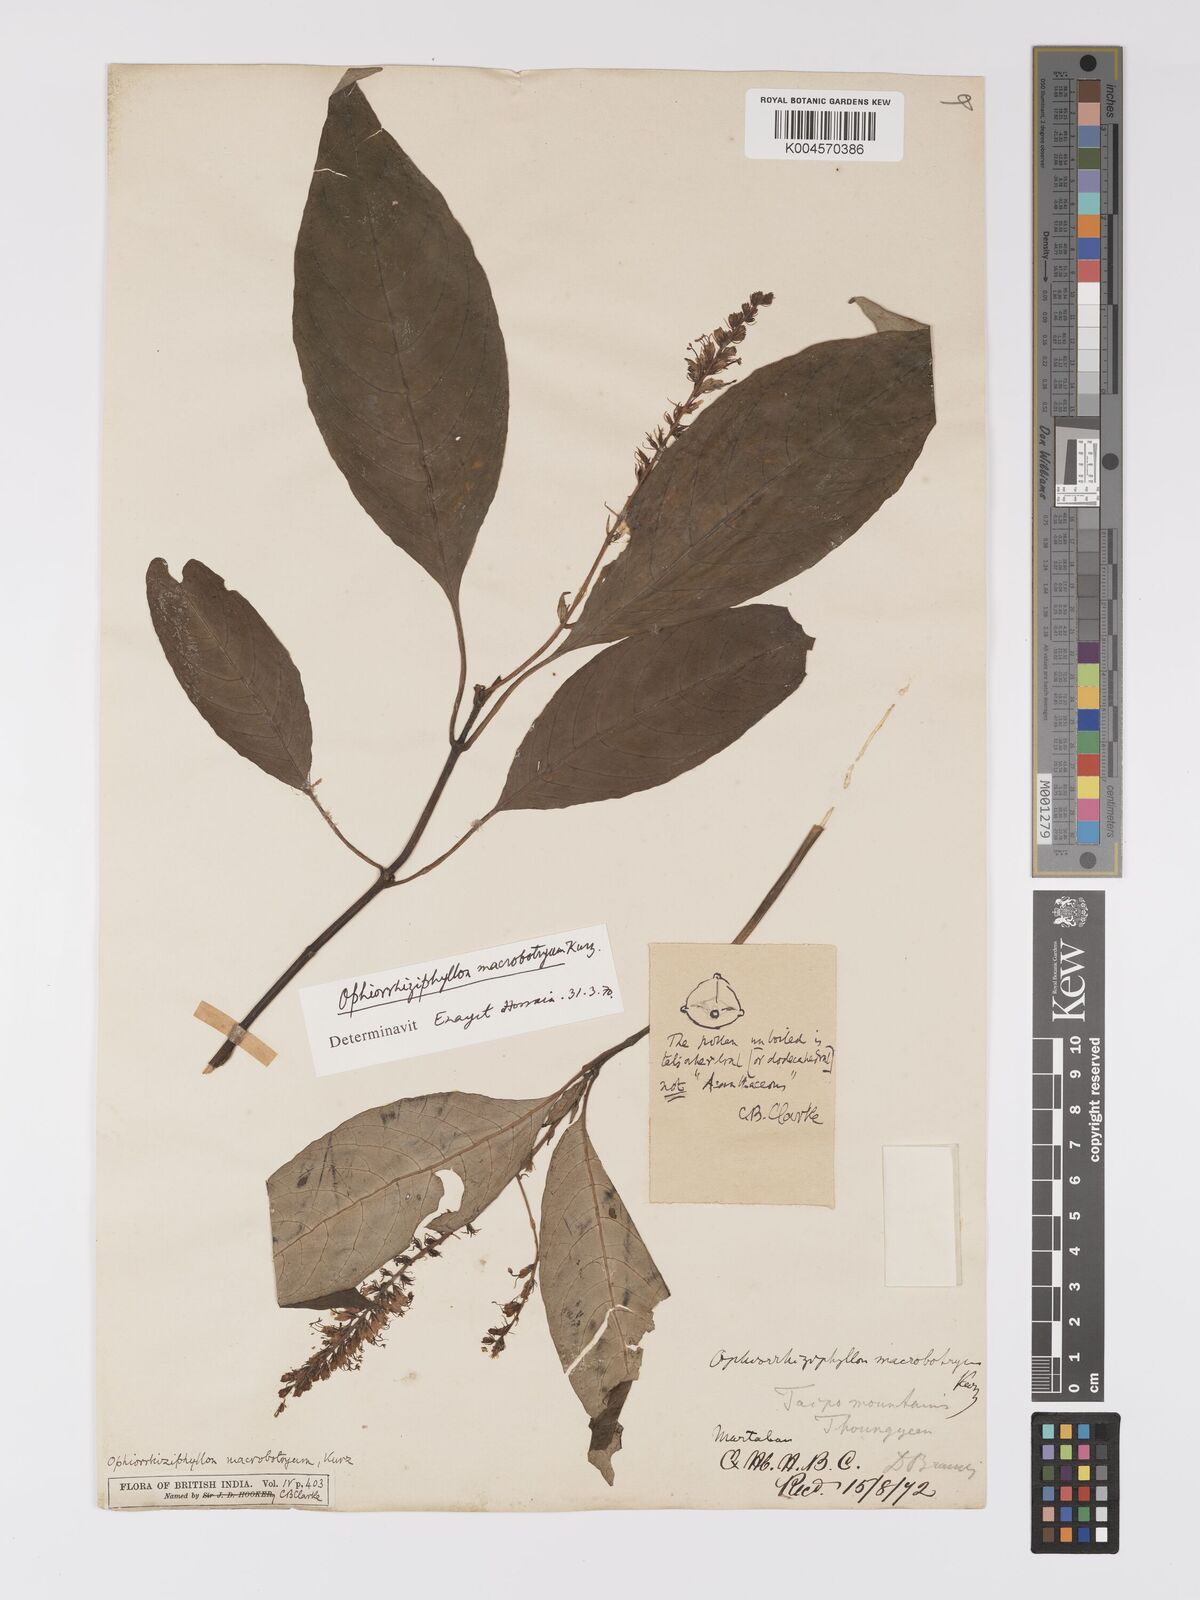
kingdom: Plantae
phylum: Tracheophyta
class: Magnoliopsida
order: Lamiales
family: Acanthaceae
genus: Staurogyne
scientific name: Staurogyne macrobotrya
